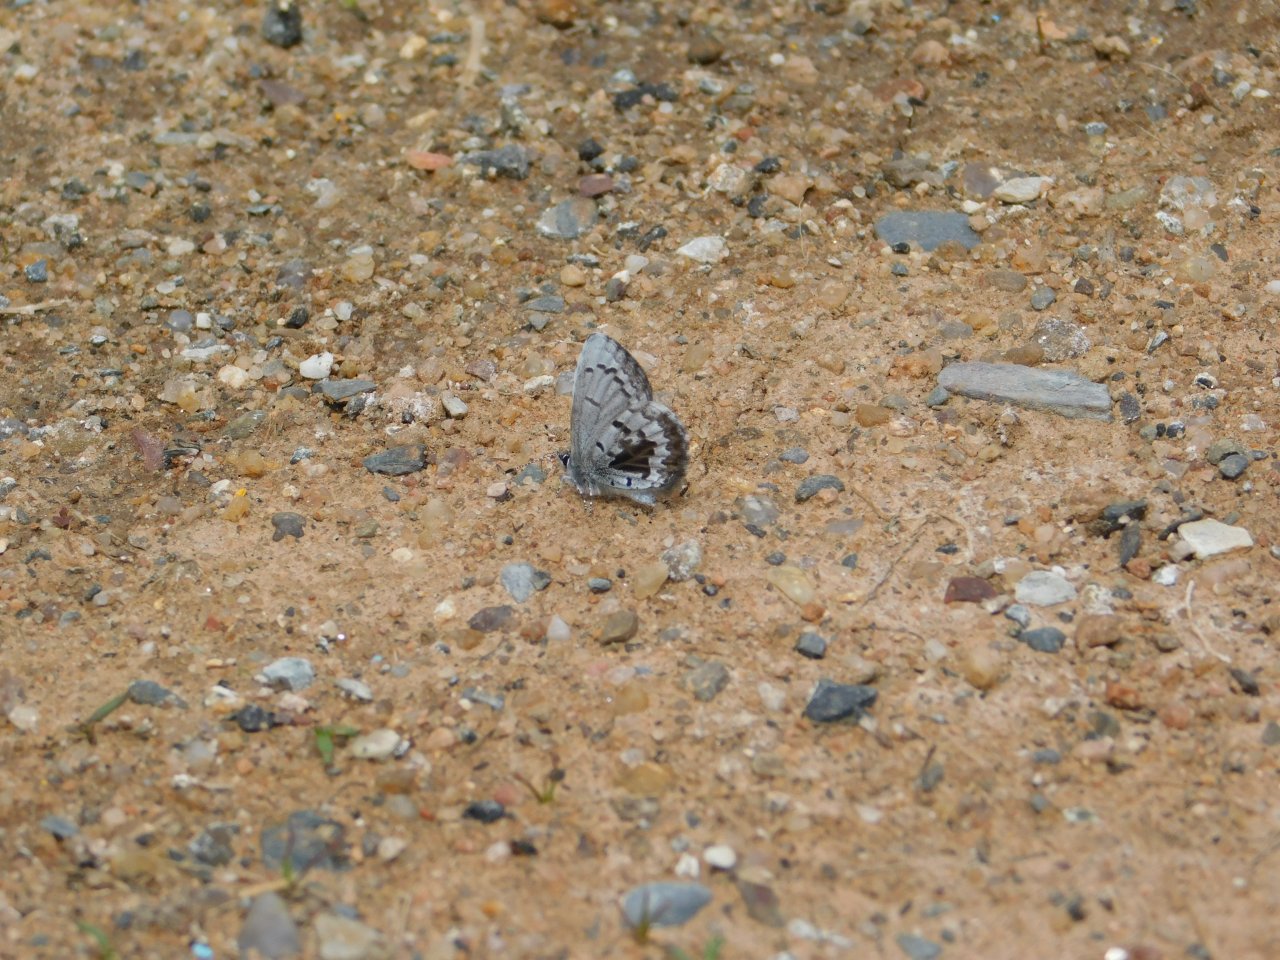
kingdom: Animalia
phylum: Arthropoda
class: Insecta
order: Lepidoptera
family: Lycaenidae
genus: Celastrina
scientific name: Celastrina lucia
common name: Northern Spring Azure
